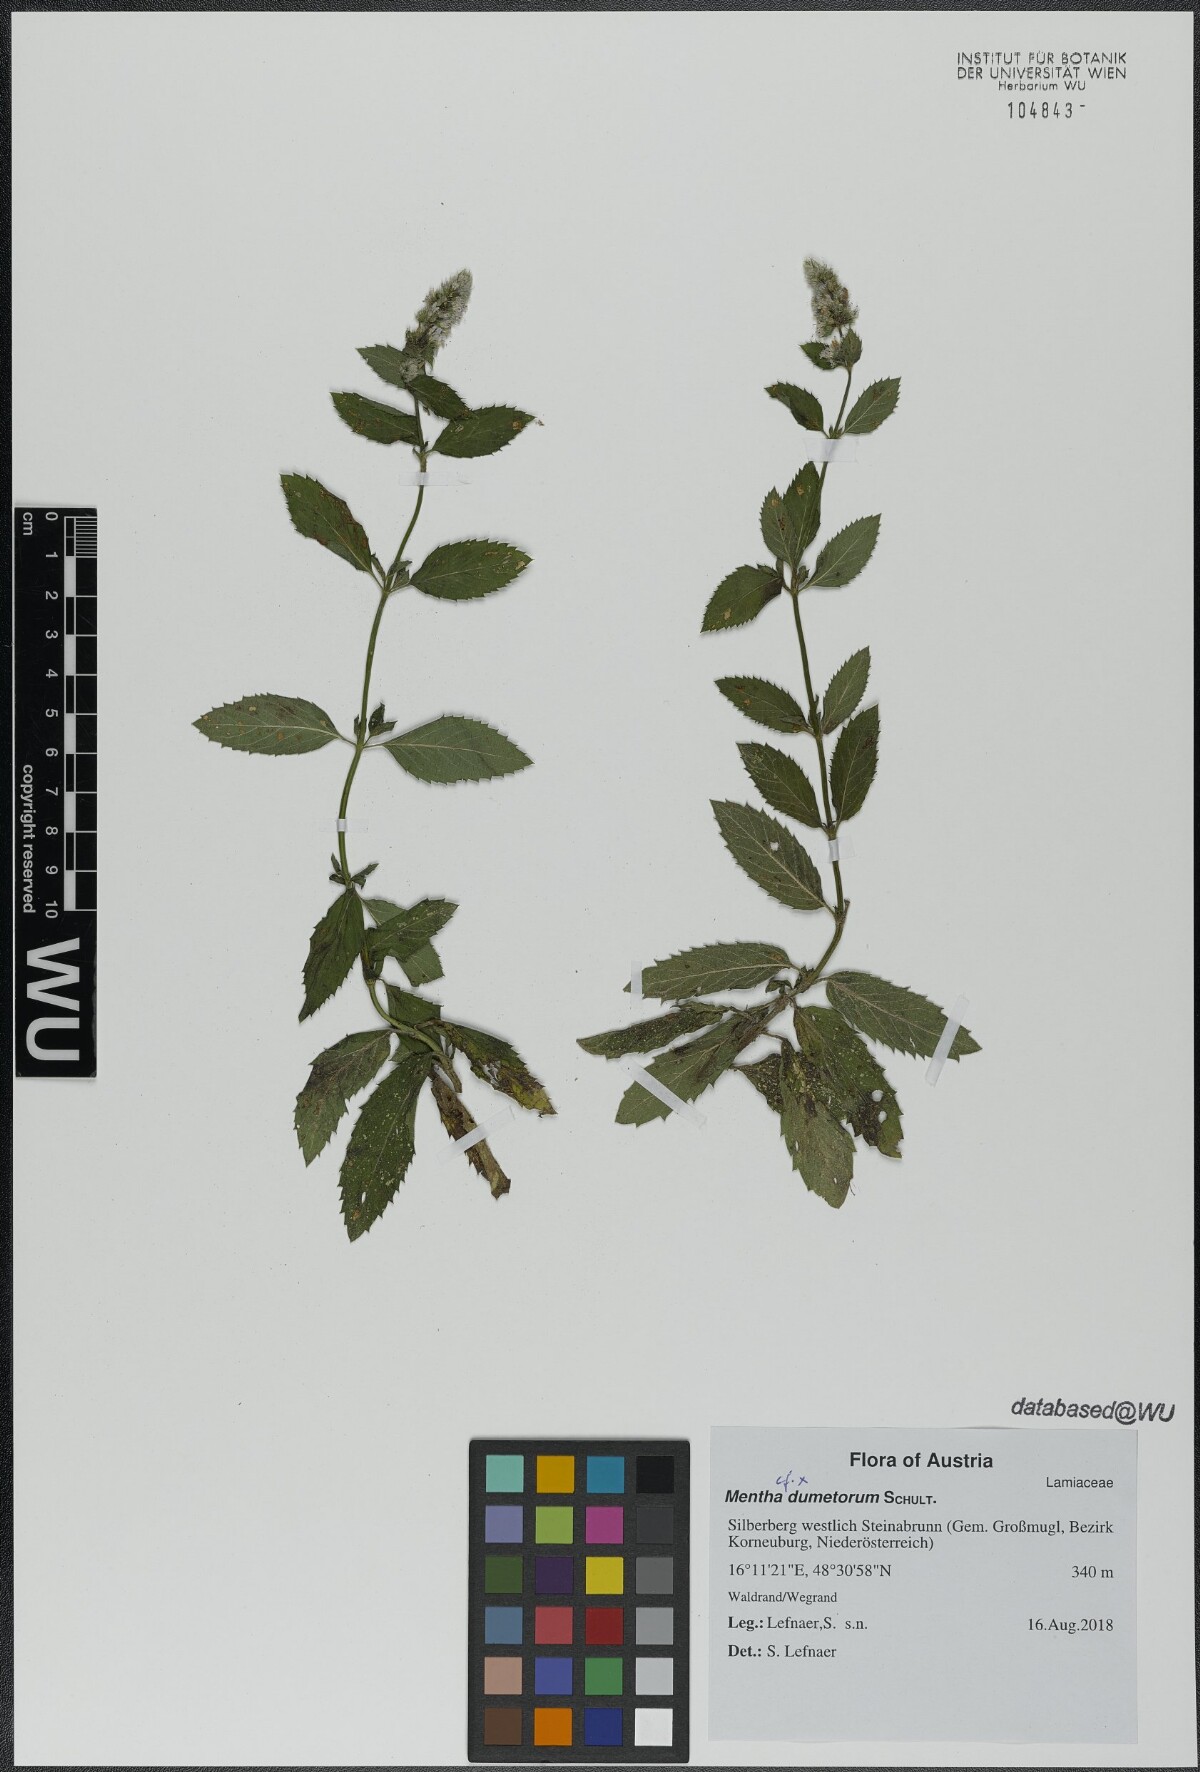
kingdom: Plantae
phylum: Tracheophyta
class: Magnoliopsida
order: Lamiales
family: Lamiaceae
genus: Mentha
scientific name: Mentha dumetorum
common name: Bush-loving mint
